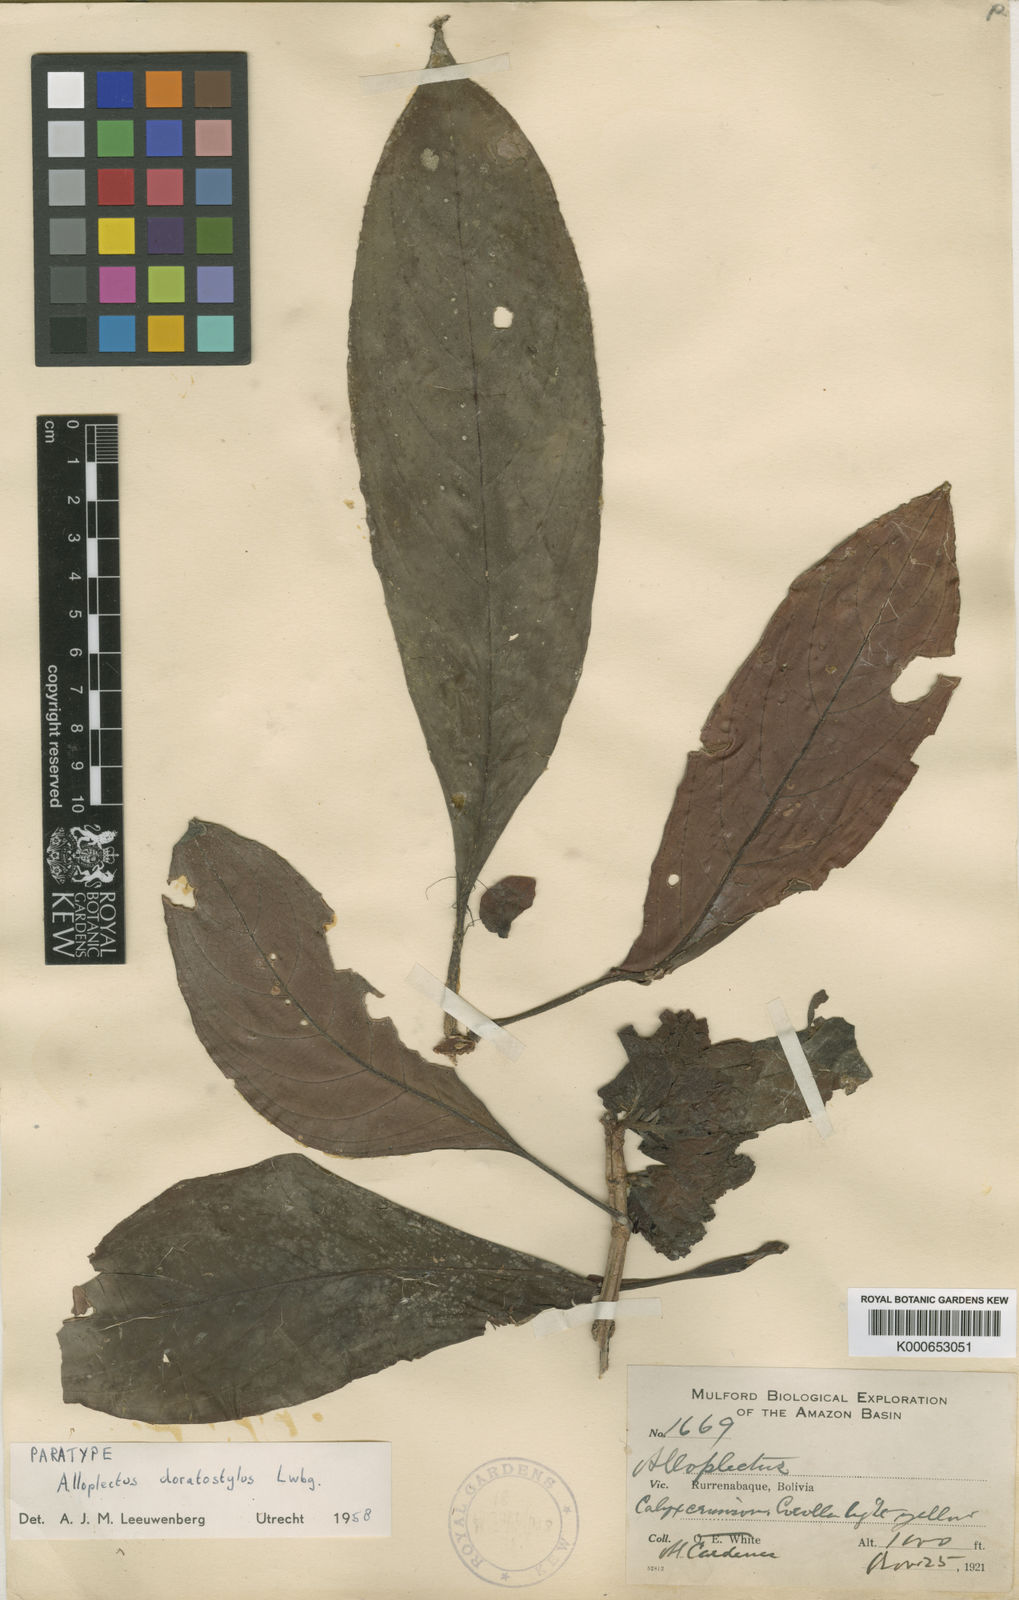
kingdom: Plantae
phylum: Tracheophyta
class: Magnoliopsida
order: Lamiales
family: Gesneriaceae
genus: Drymonia
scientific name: Drymonia doratostyla
